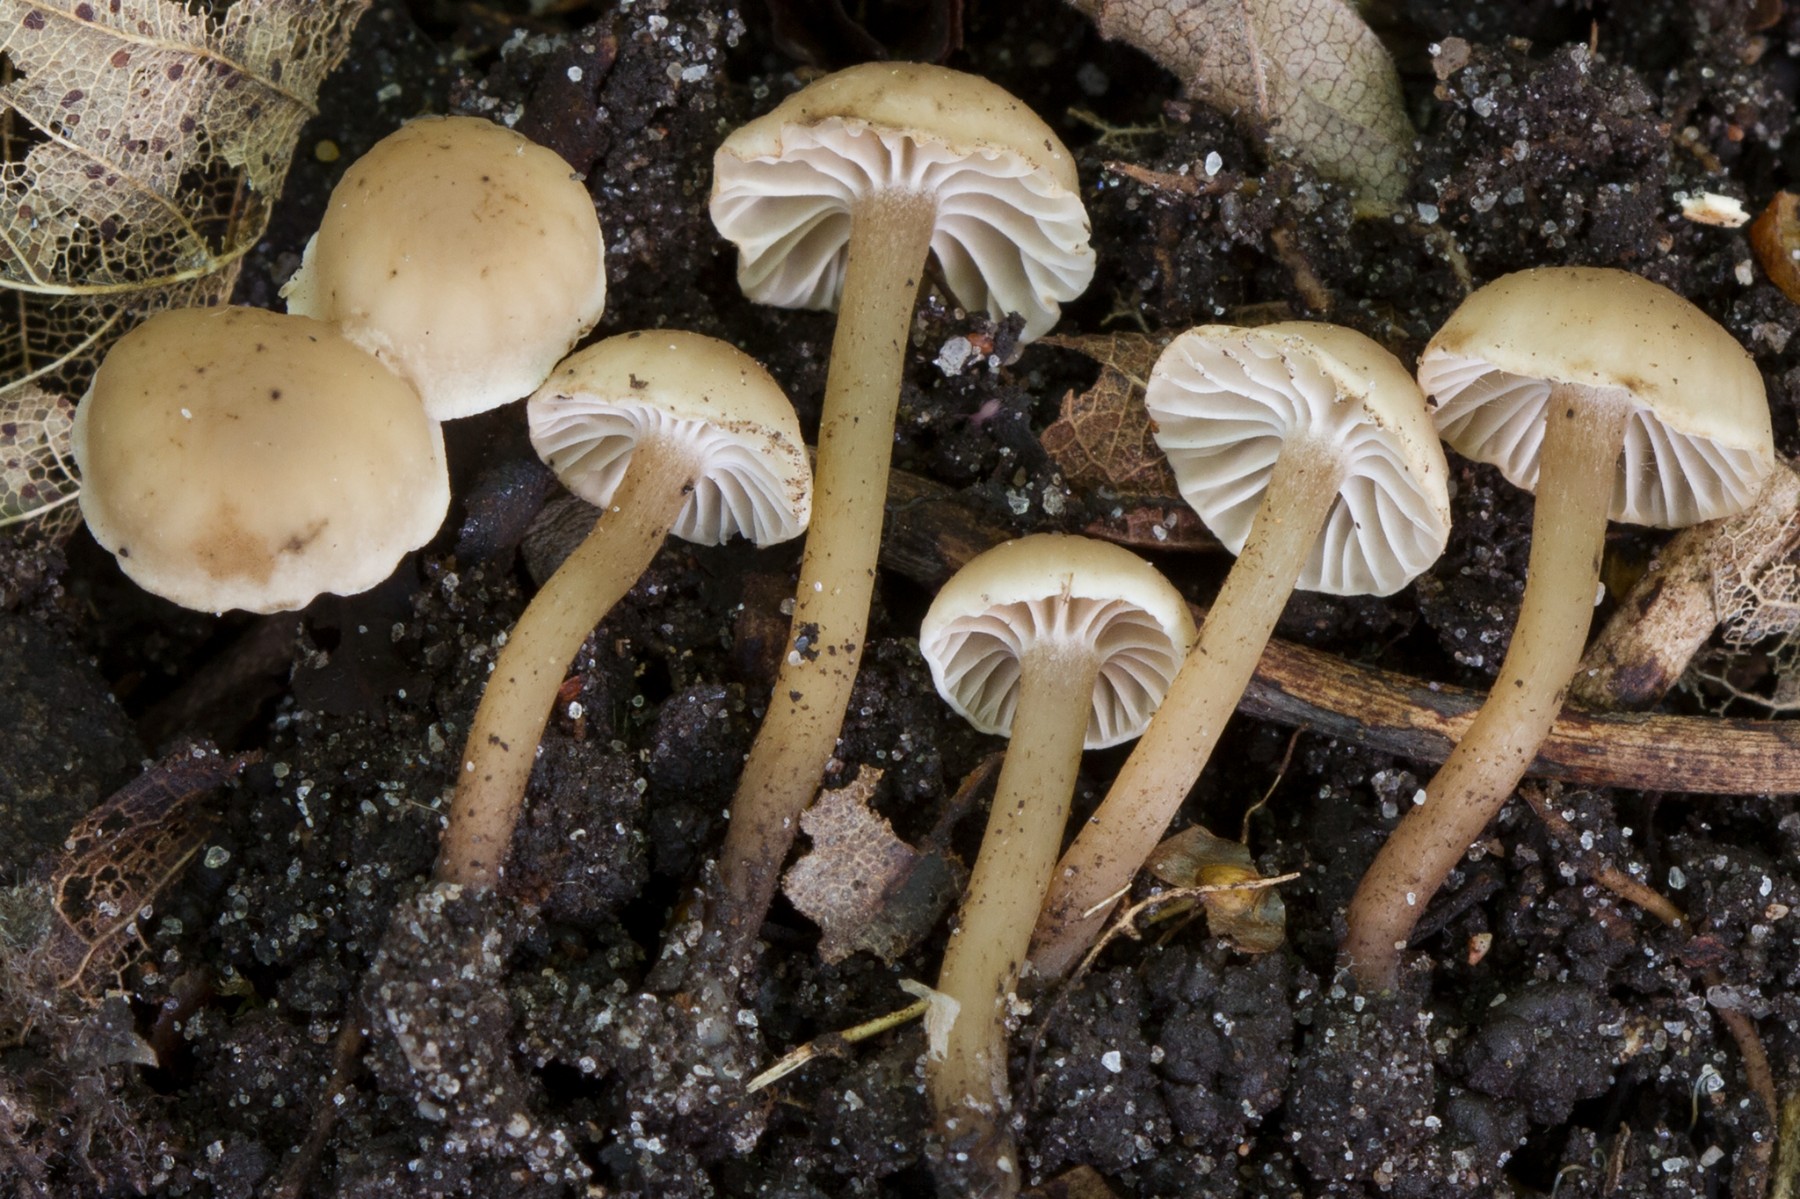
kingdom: Fungi
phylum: Basidiomycota
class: Agaricomycetes
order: Agaricales
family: Clavariaceae
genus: Hodophilus
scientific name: Hodophilus foetens
